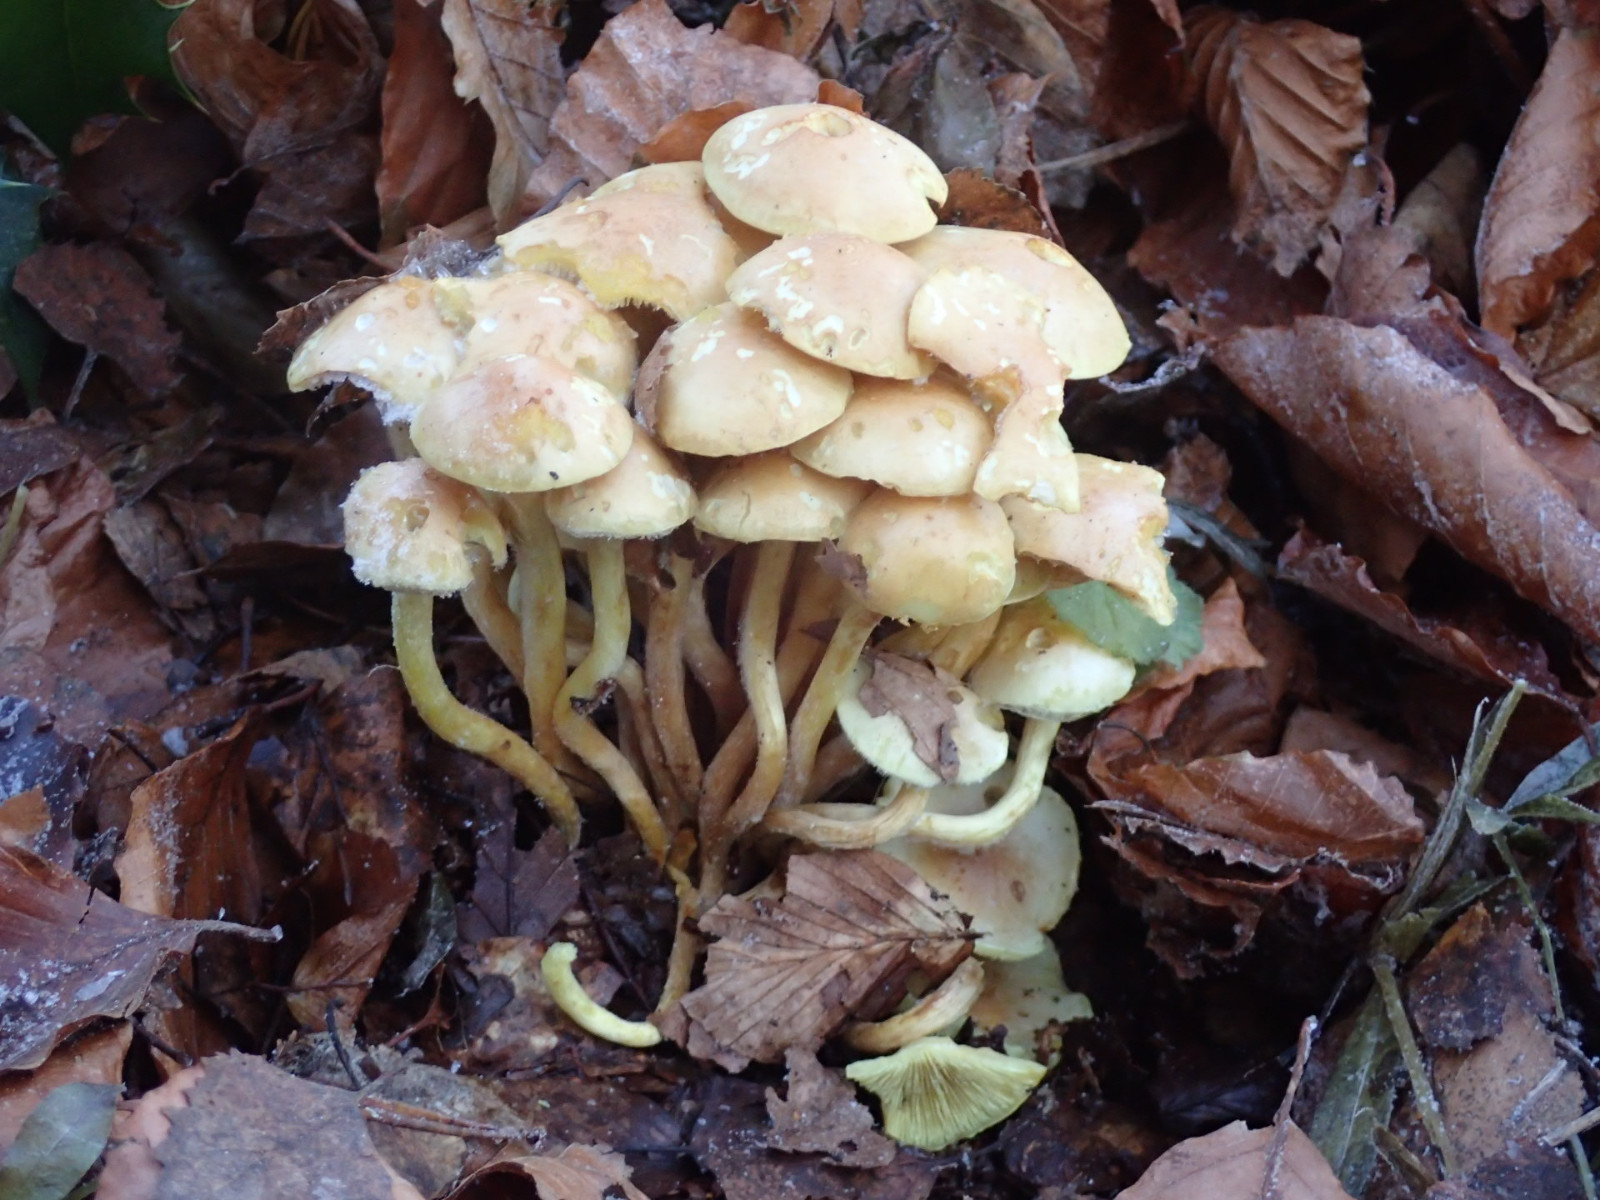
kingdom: Fungi
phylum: Basidiomycota
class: Agaricomycetes
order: Agaricales
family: Strophariaceae
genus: Hypholoma
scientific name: Hypholoma fasciculare
